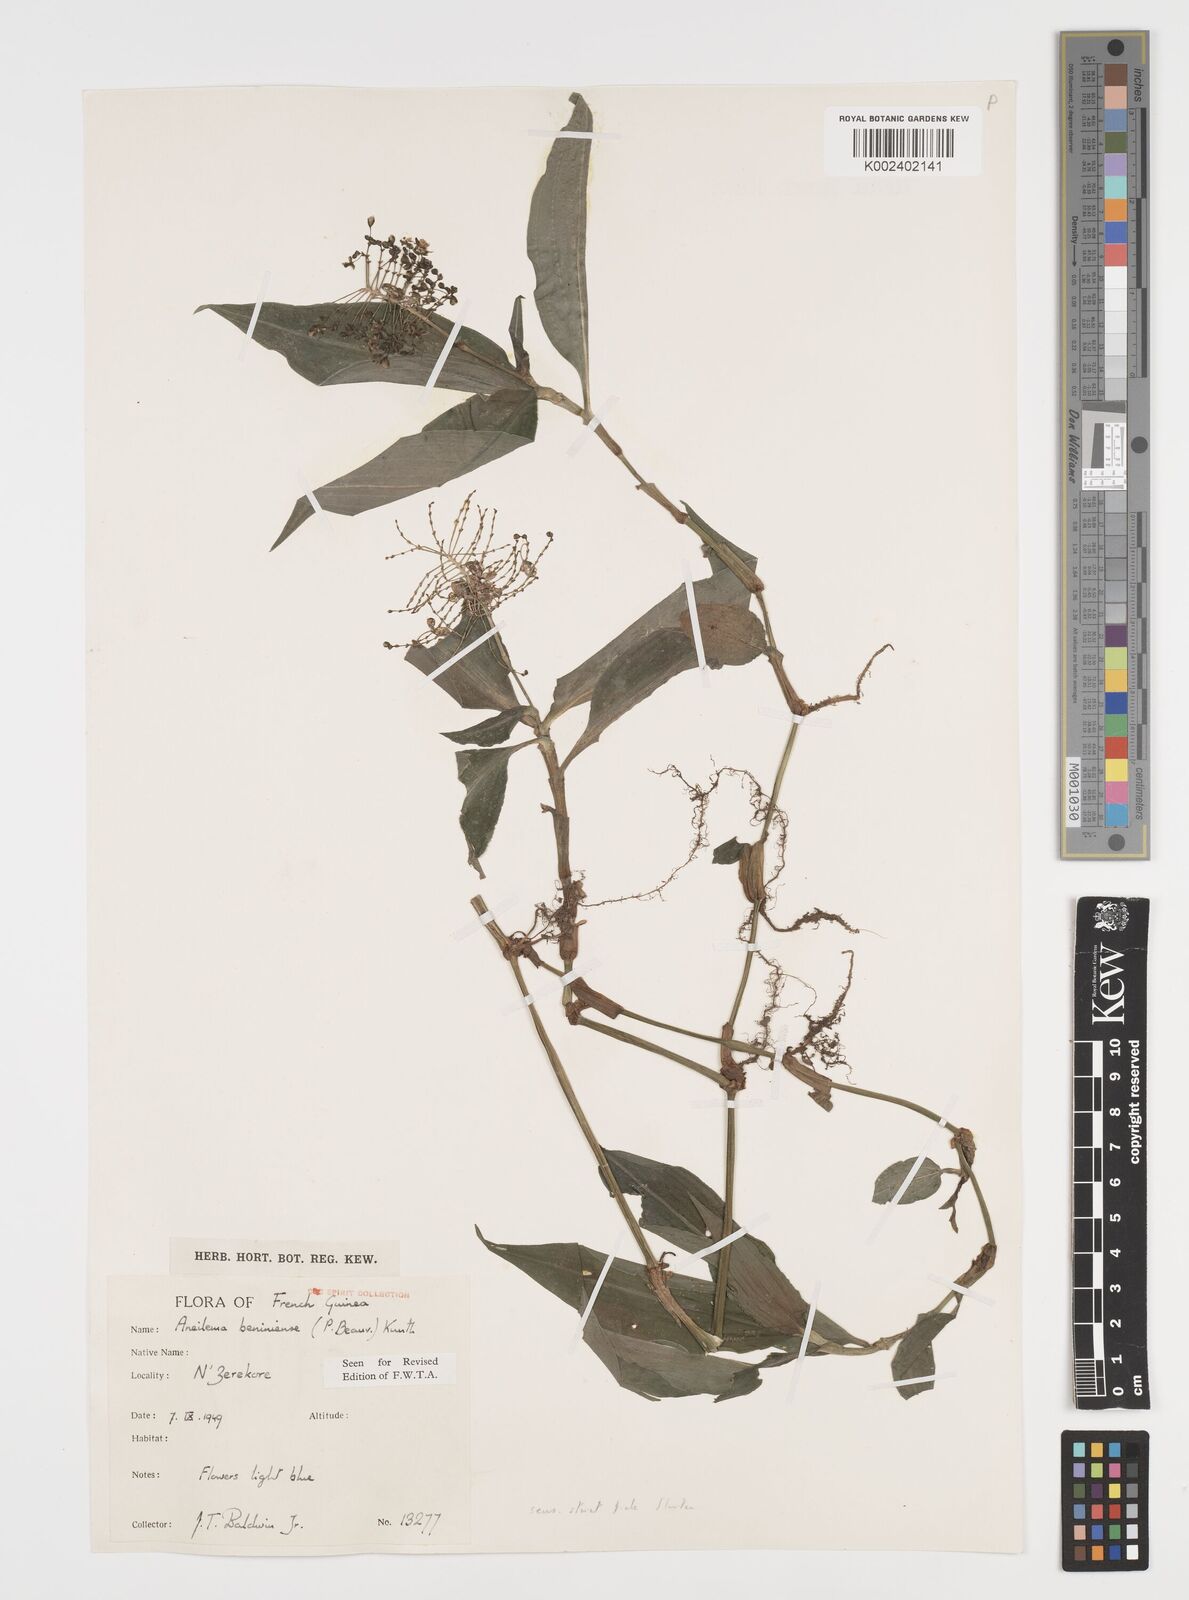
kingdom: Plantae
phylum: Tracheophyta
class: Liliopsida
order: Commelinales
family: Commelinaceae
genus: Aneilema
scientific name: Aneilema beniniense
